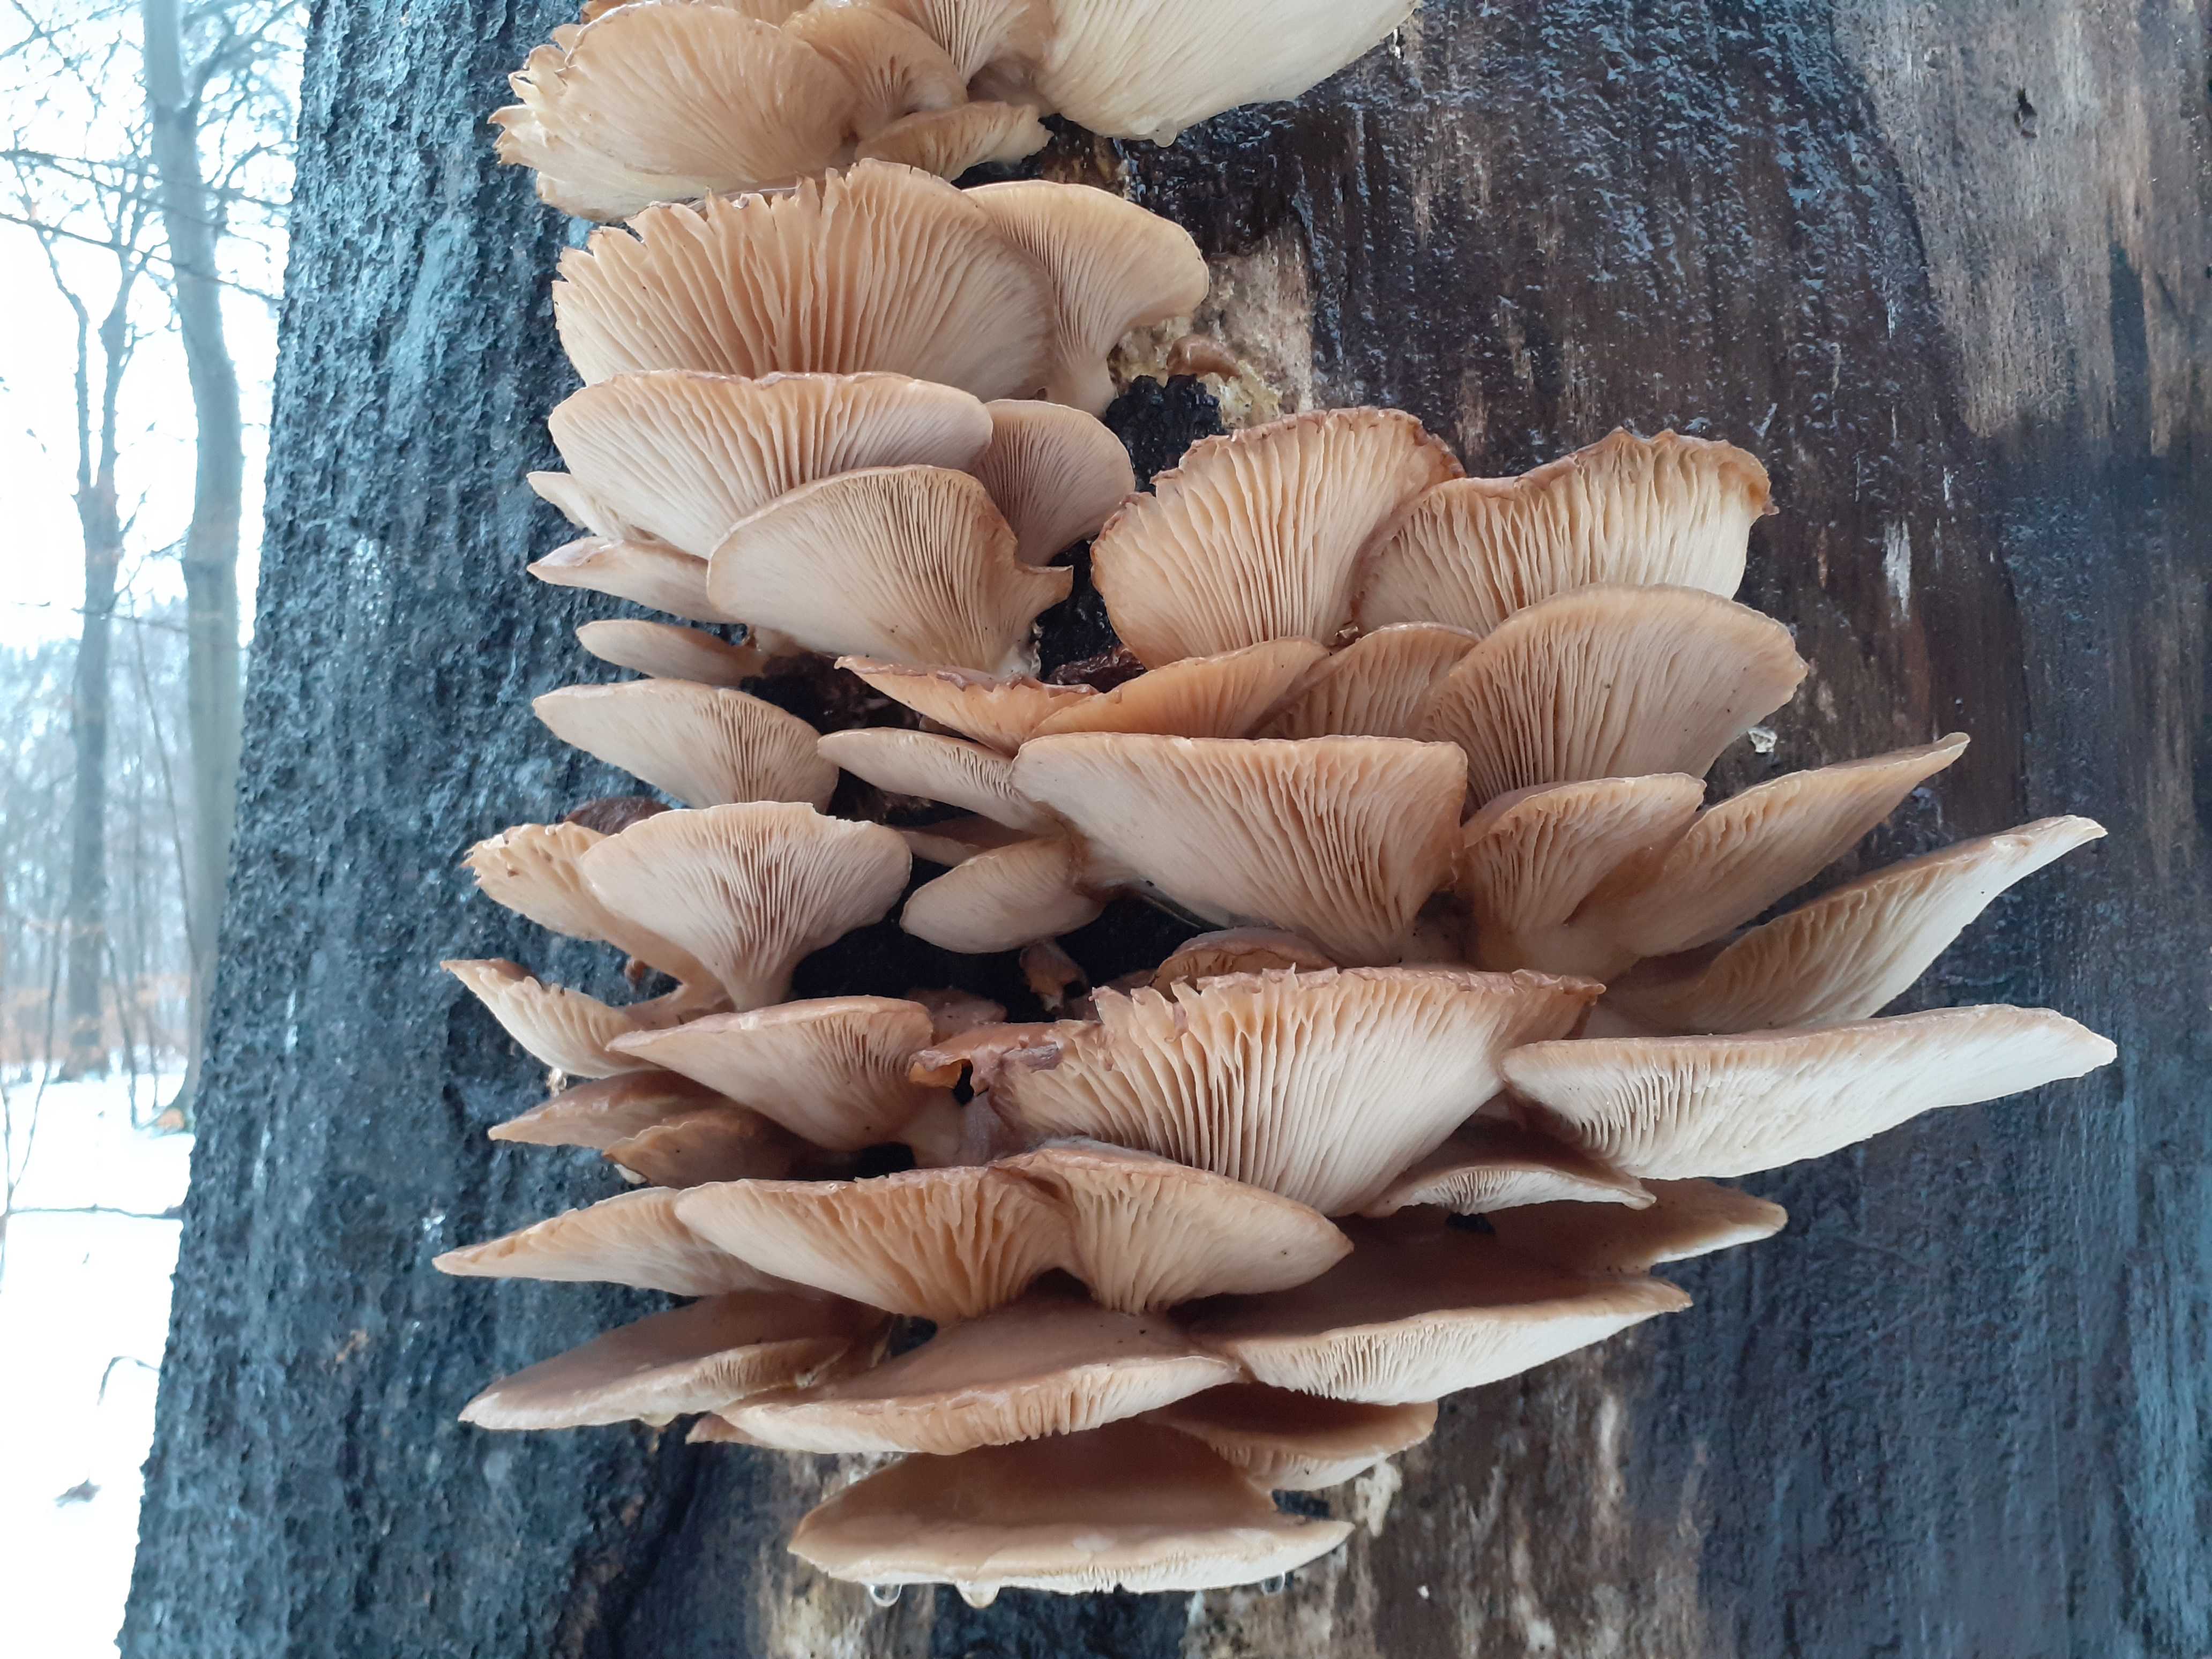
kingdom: Fungi
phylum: Basidiomycota
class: Agaricomycetes
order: Agaricales
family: Pleurotaceae
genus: Pleurotus
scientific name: Pleurotus ostreatus
